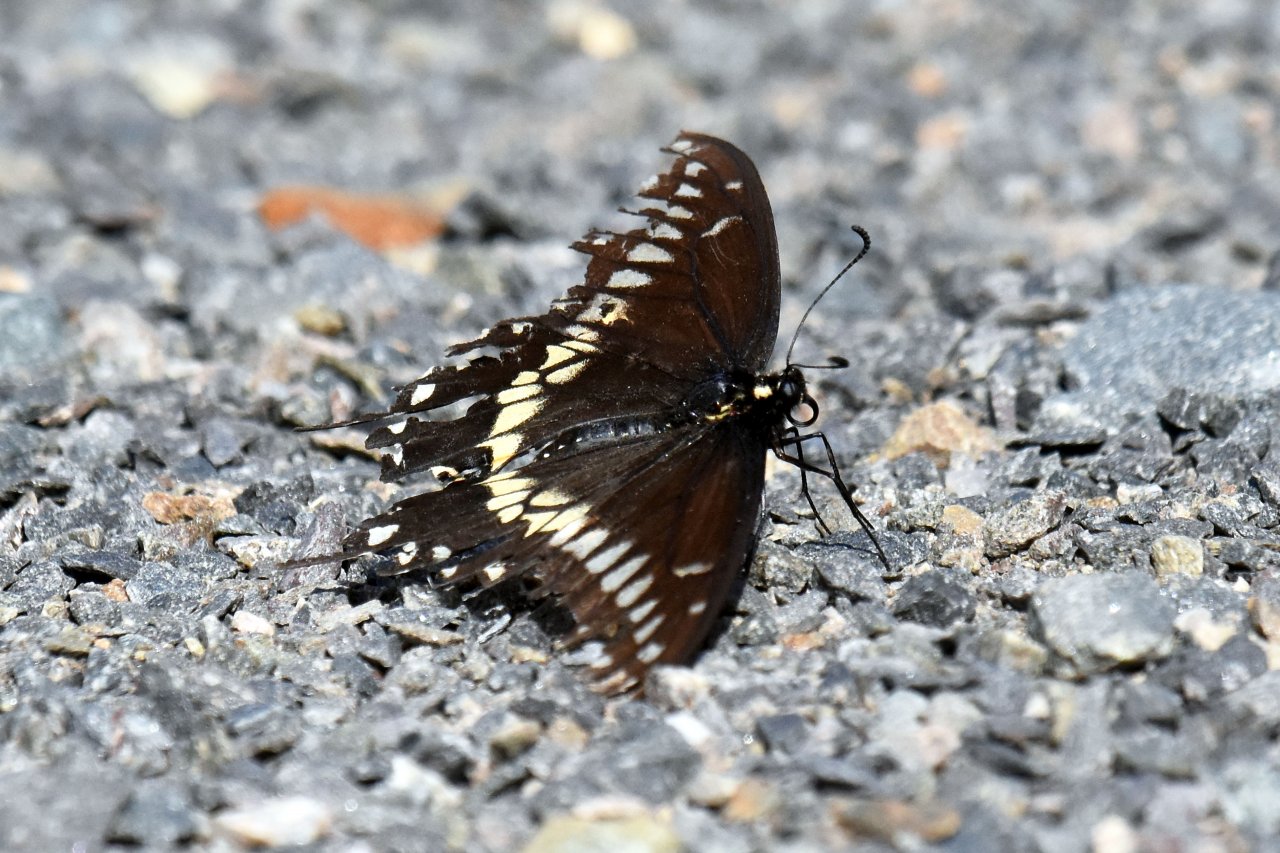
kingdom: Animalia
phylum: Arthropoda
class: Insecta
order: Lepidoptera
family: Papilionidae
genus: Papilio
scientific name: Papilio polyxenes
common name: Black Swallowtail
